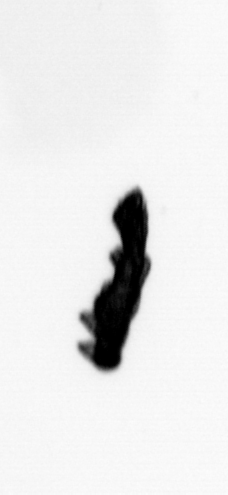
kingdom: Animalia
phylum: Annelida
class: Polychaeta
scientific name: Polychaeta
